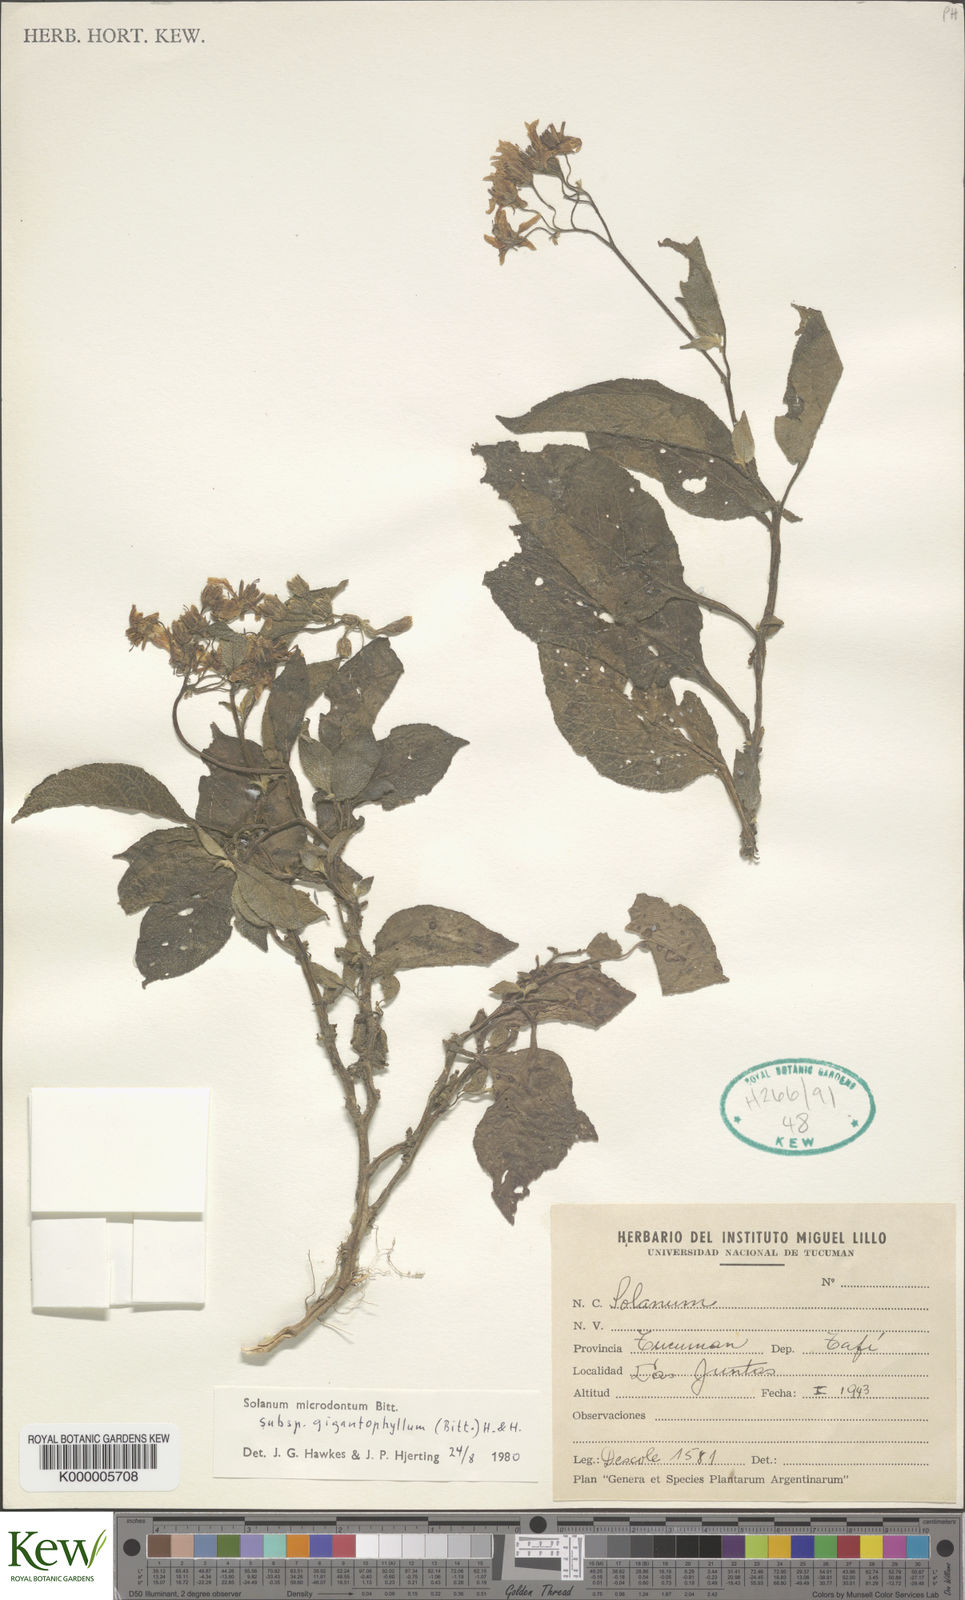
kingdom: Plantae
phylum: Tracheophyta
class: Magnoliopsida
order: Solanales
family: Solanaceae
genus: Solanum
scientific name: Solanum microdontum
